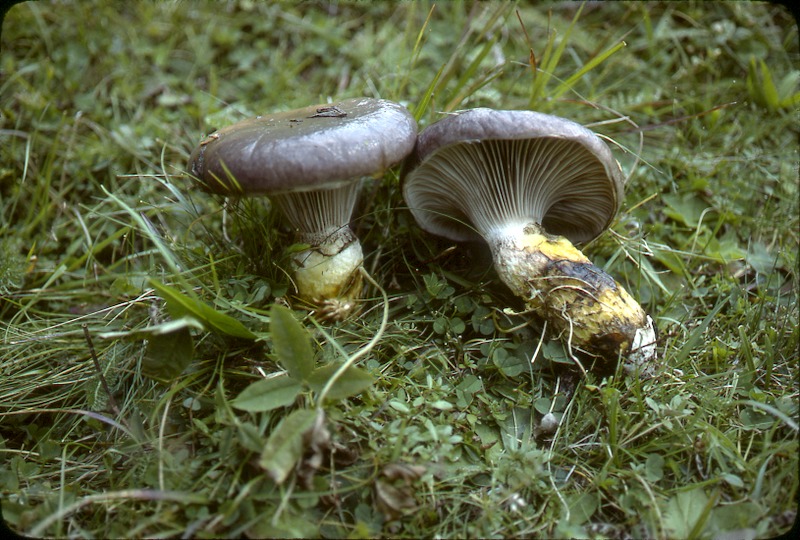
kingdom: Fungi
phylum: Basidiomycota
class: Agaricomycetes
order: Boletales
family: Gomphidiaceae
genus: Gomphidius
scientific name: Gomphidius glutinosus
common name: Slimy spike
